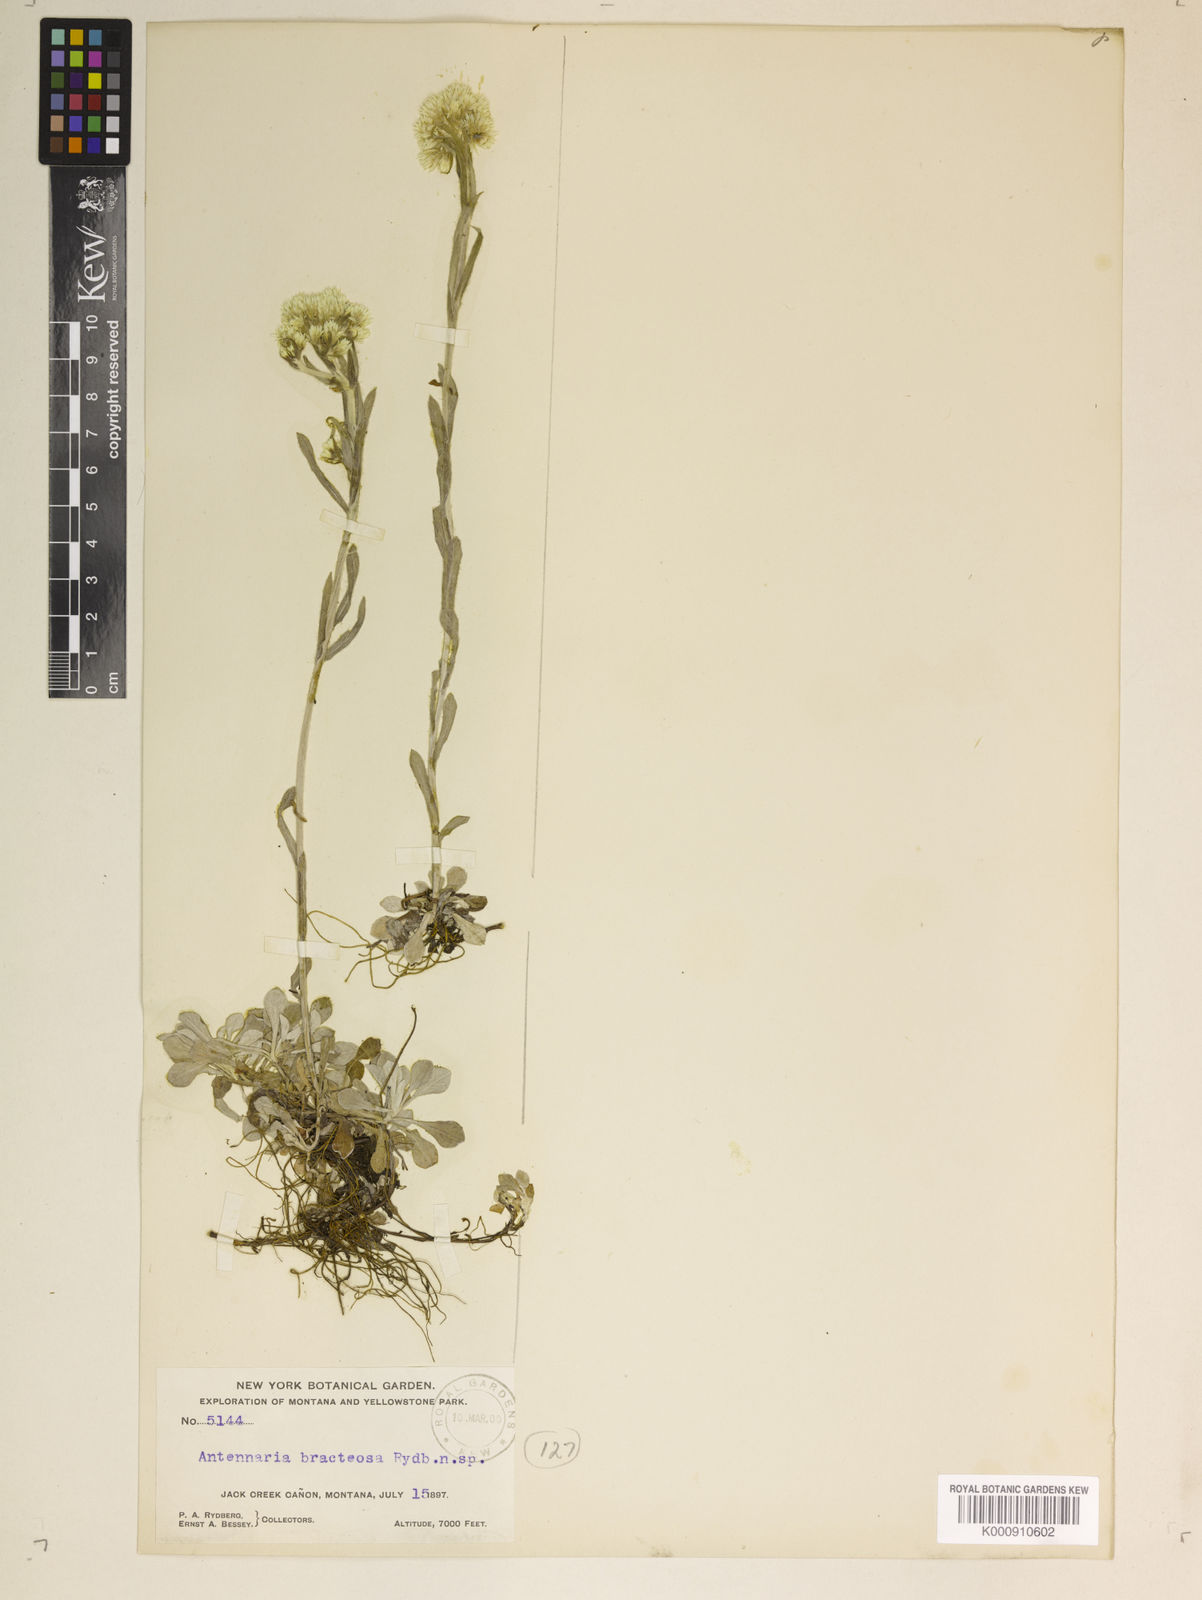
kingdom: Plantae
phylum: Tracheophyta
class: Magnoliopsida
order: Asterales
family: Asteraceae
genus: Antennaria
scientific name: Antennaria microphylla
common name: Littleleaf pussytoes
